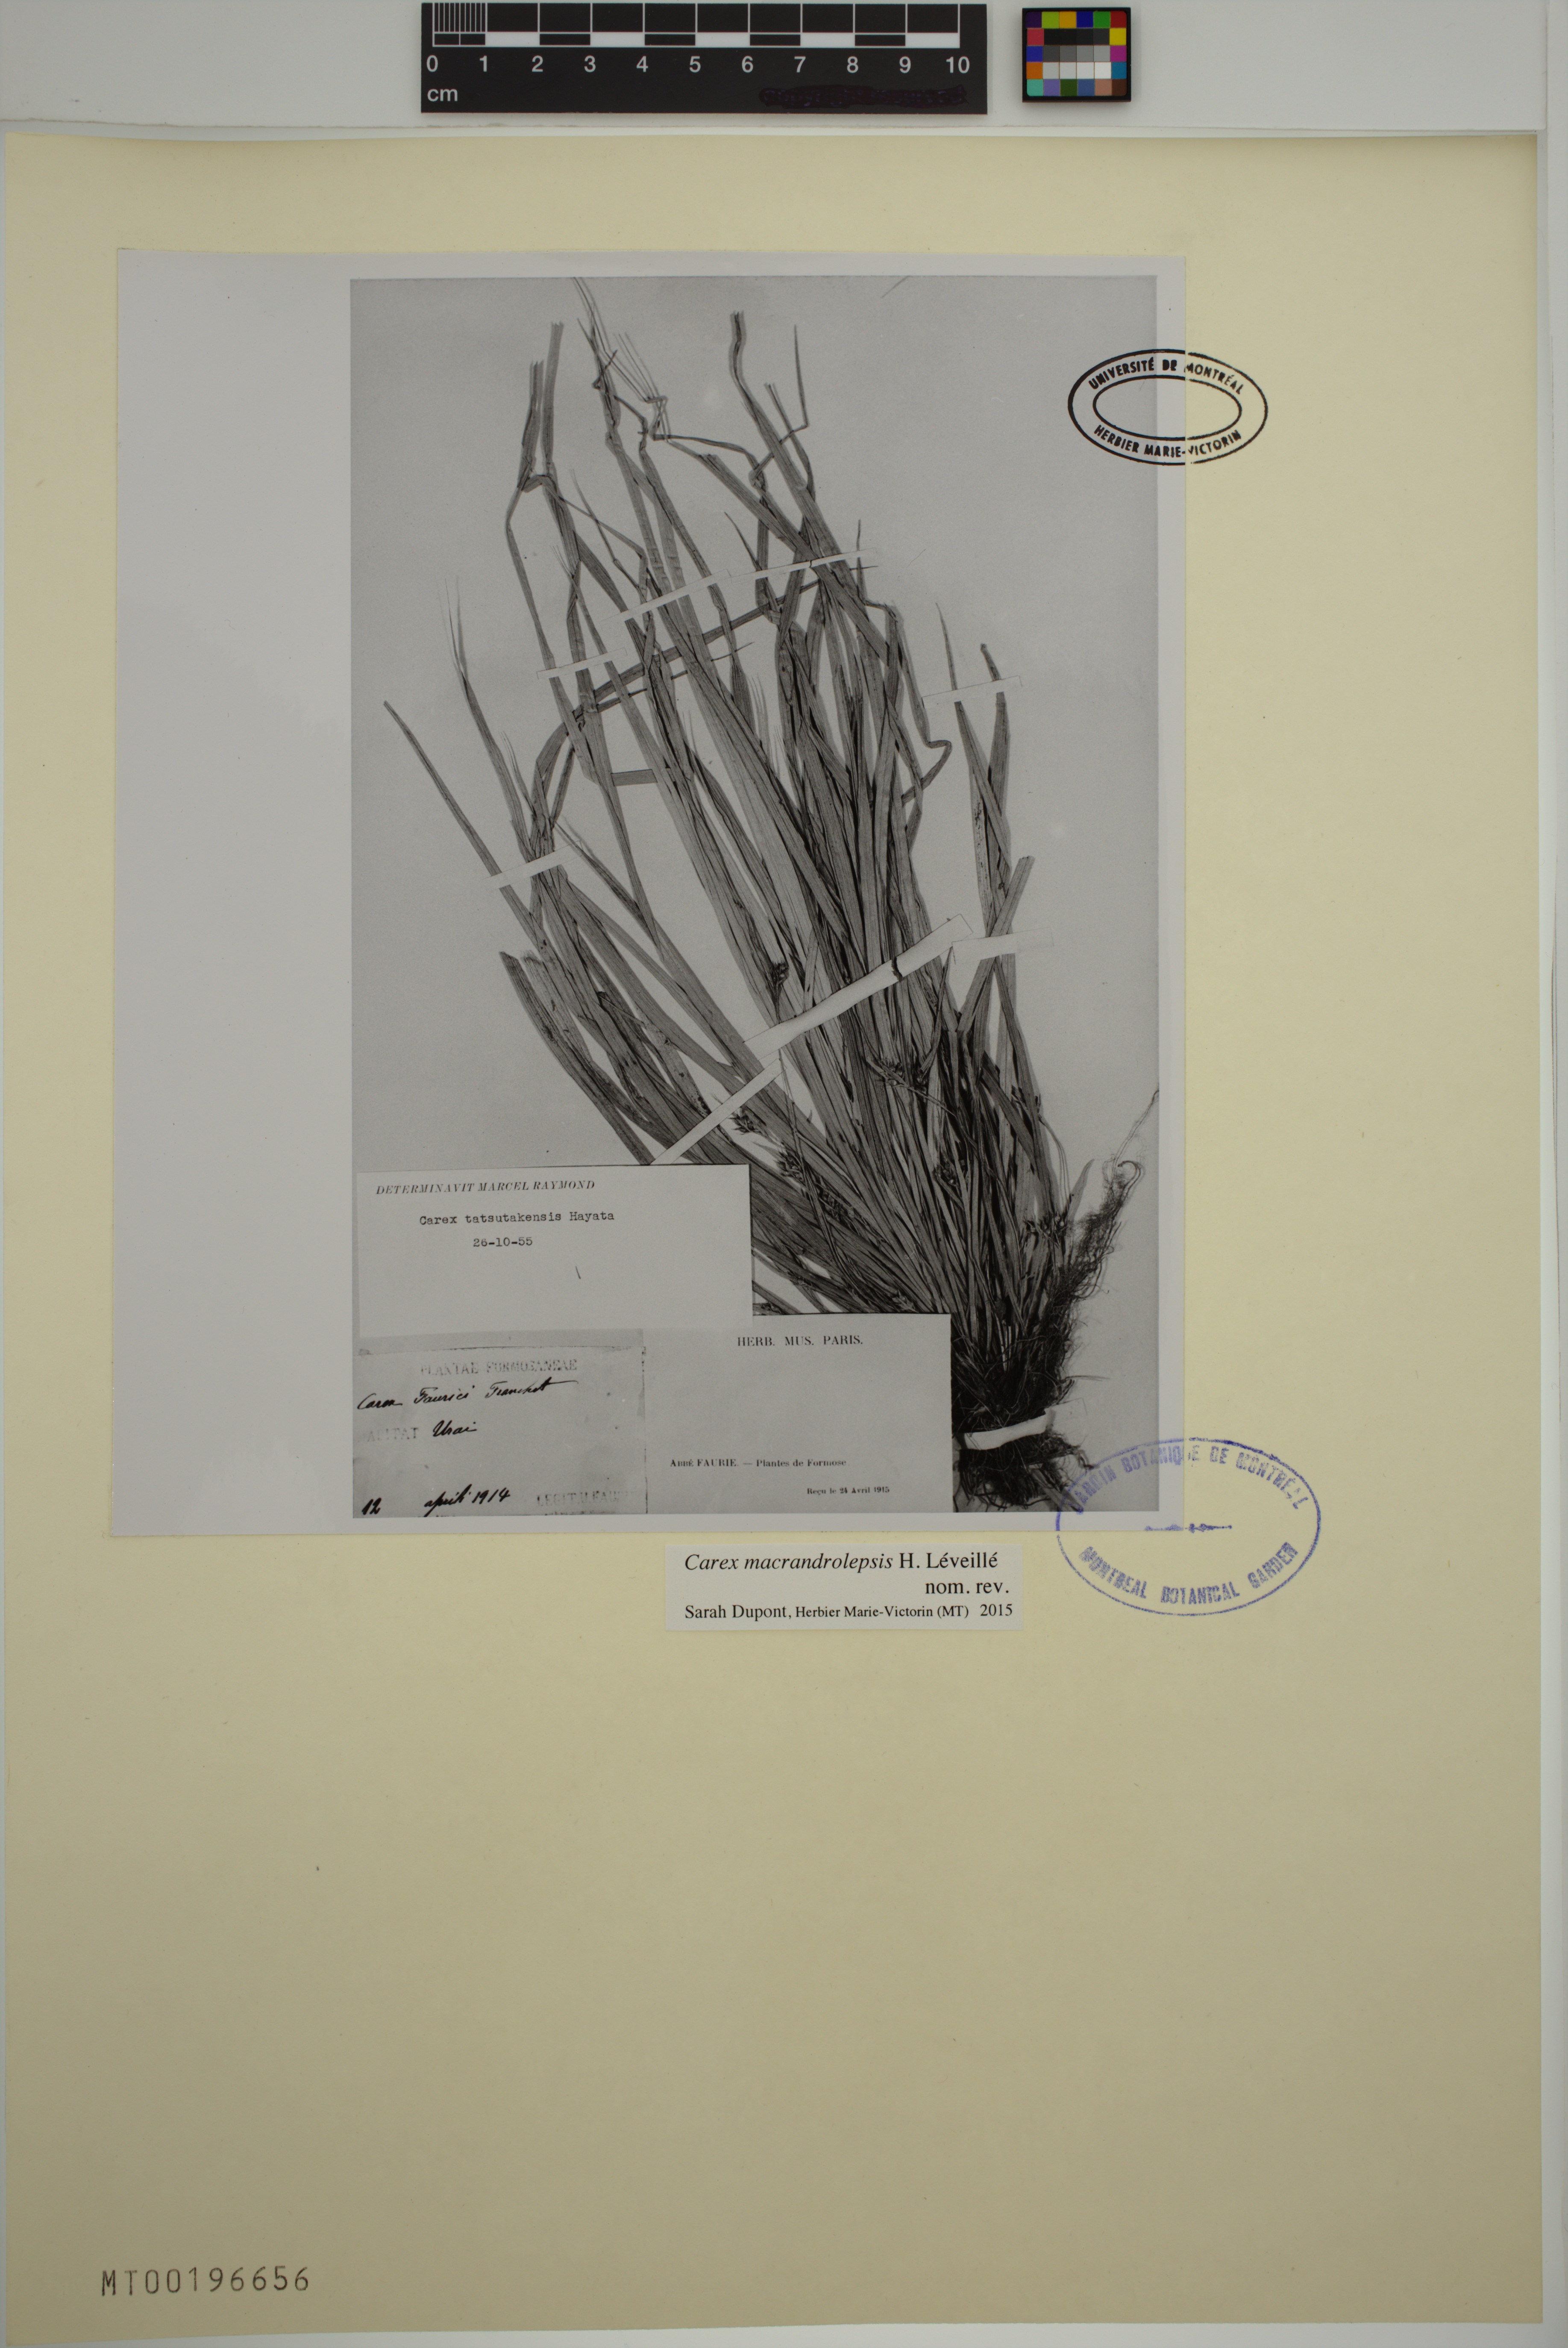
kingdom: Plantae
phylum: Tracheophyta
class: Liliopsida
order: Poales
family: Cyperaceae
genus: Carex
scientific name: Carex oxyphylla
